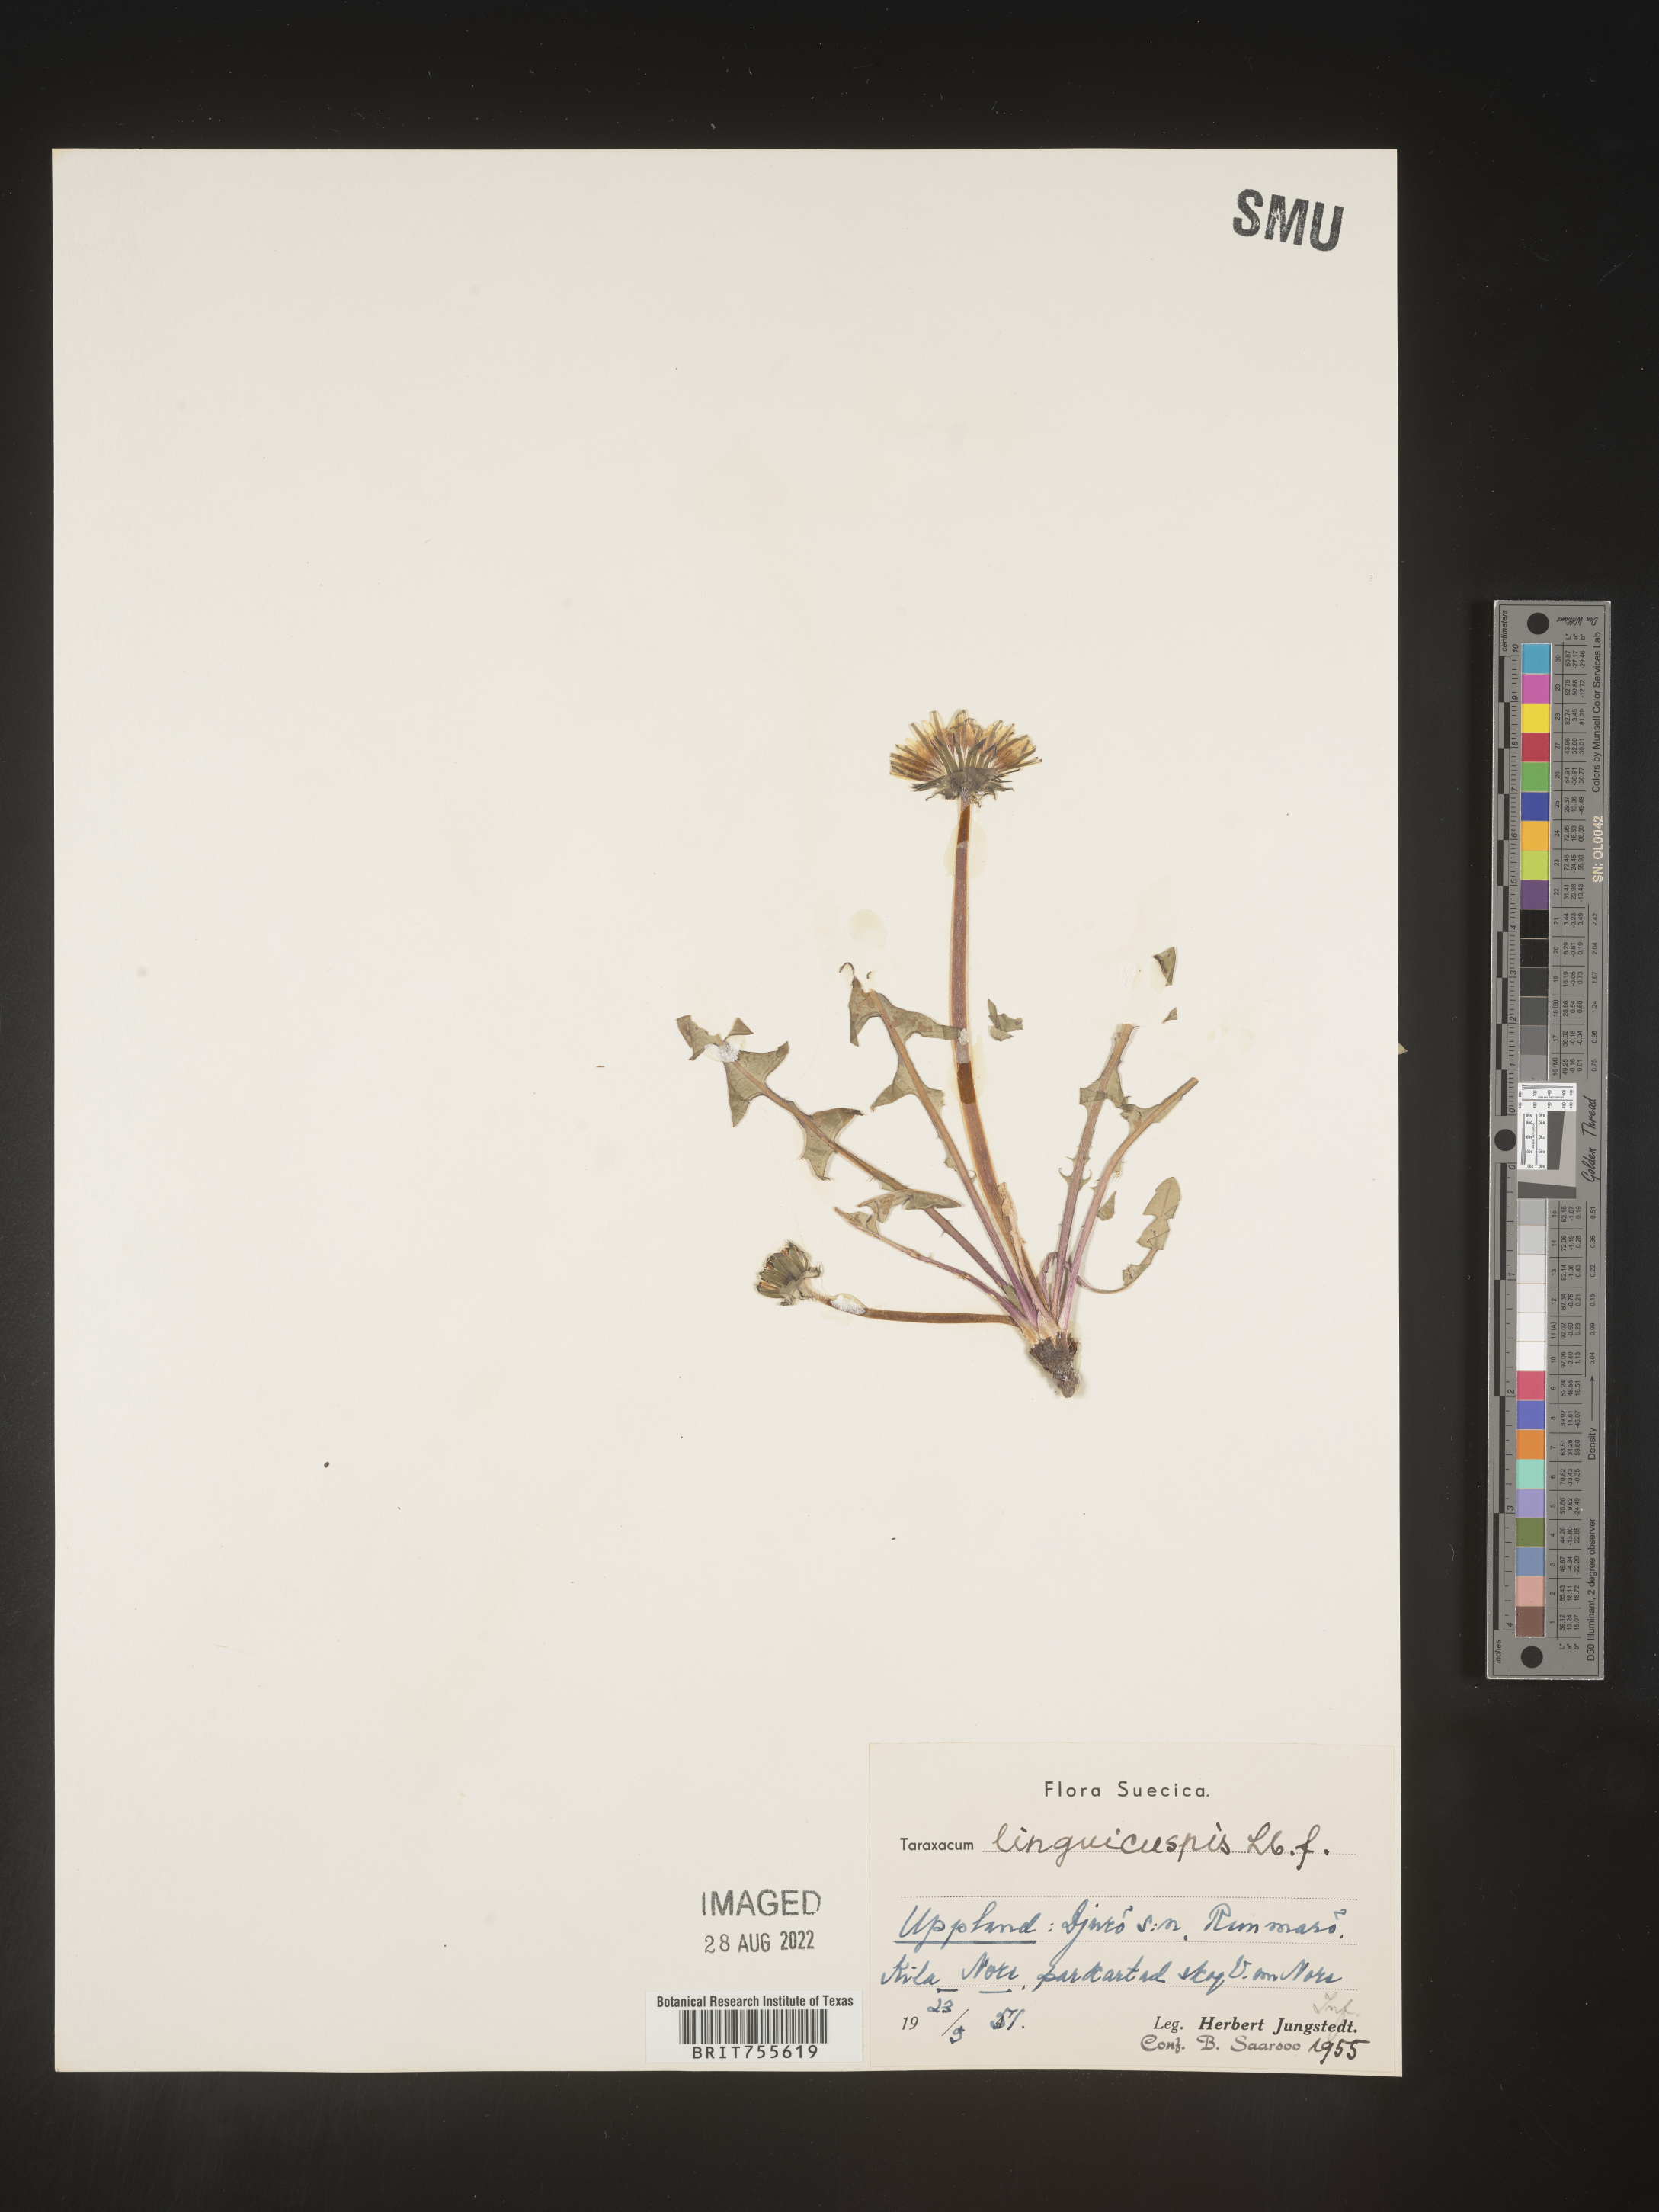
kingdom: Plantae
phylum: Tracheophyta
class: Magnoliopsida
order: Asterales
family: Asteraceae
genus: Taraxacum
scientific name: Taraxacum
